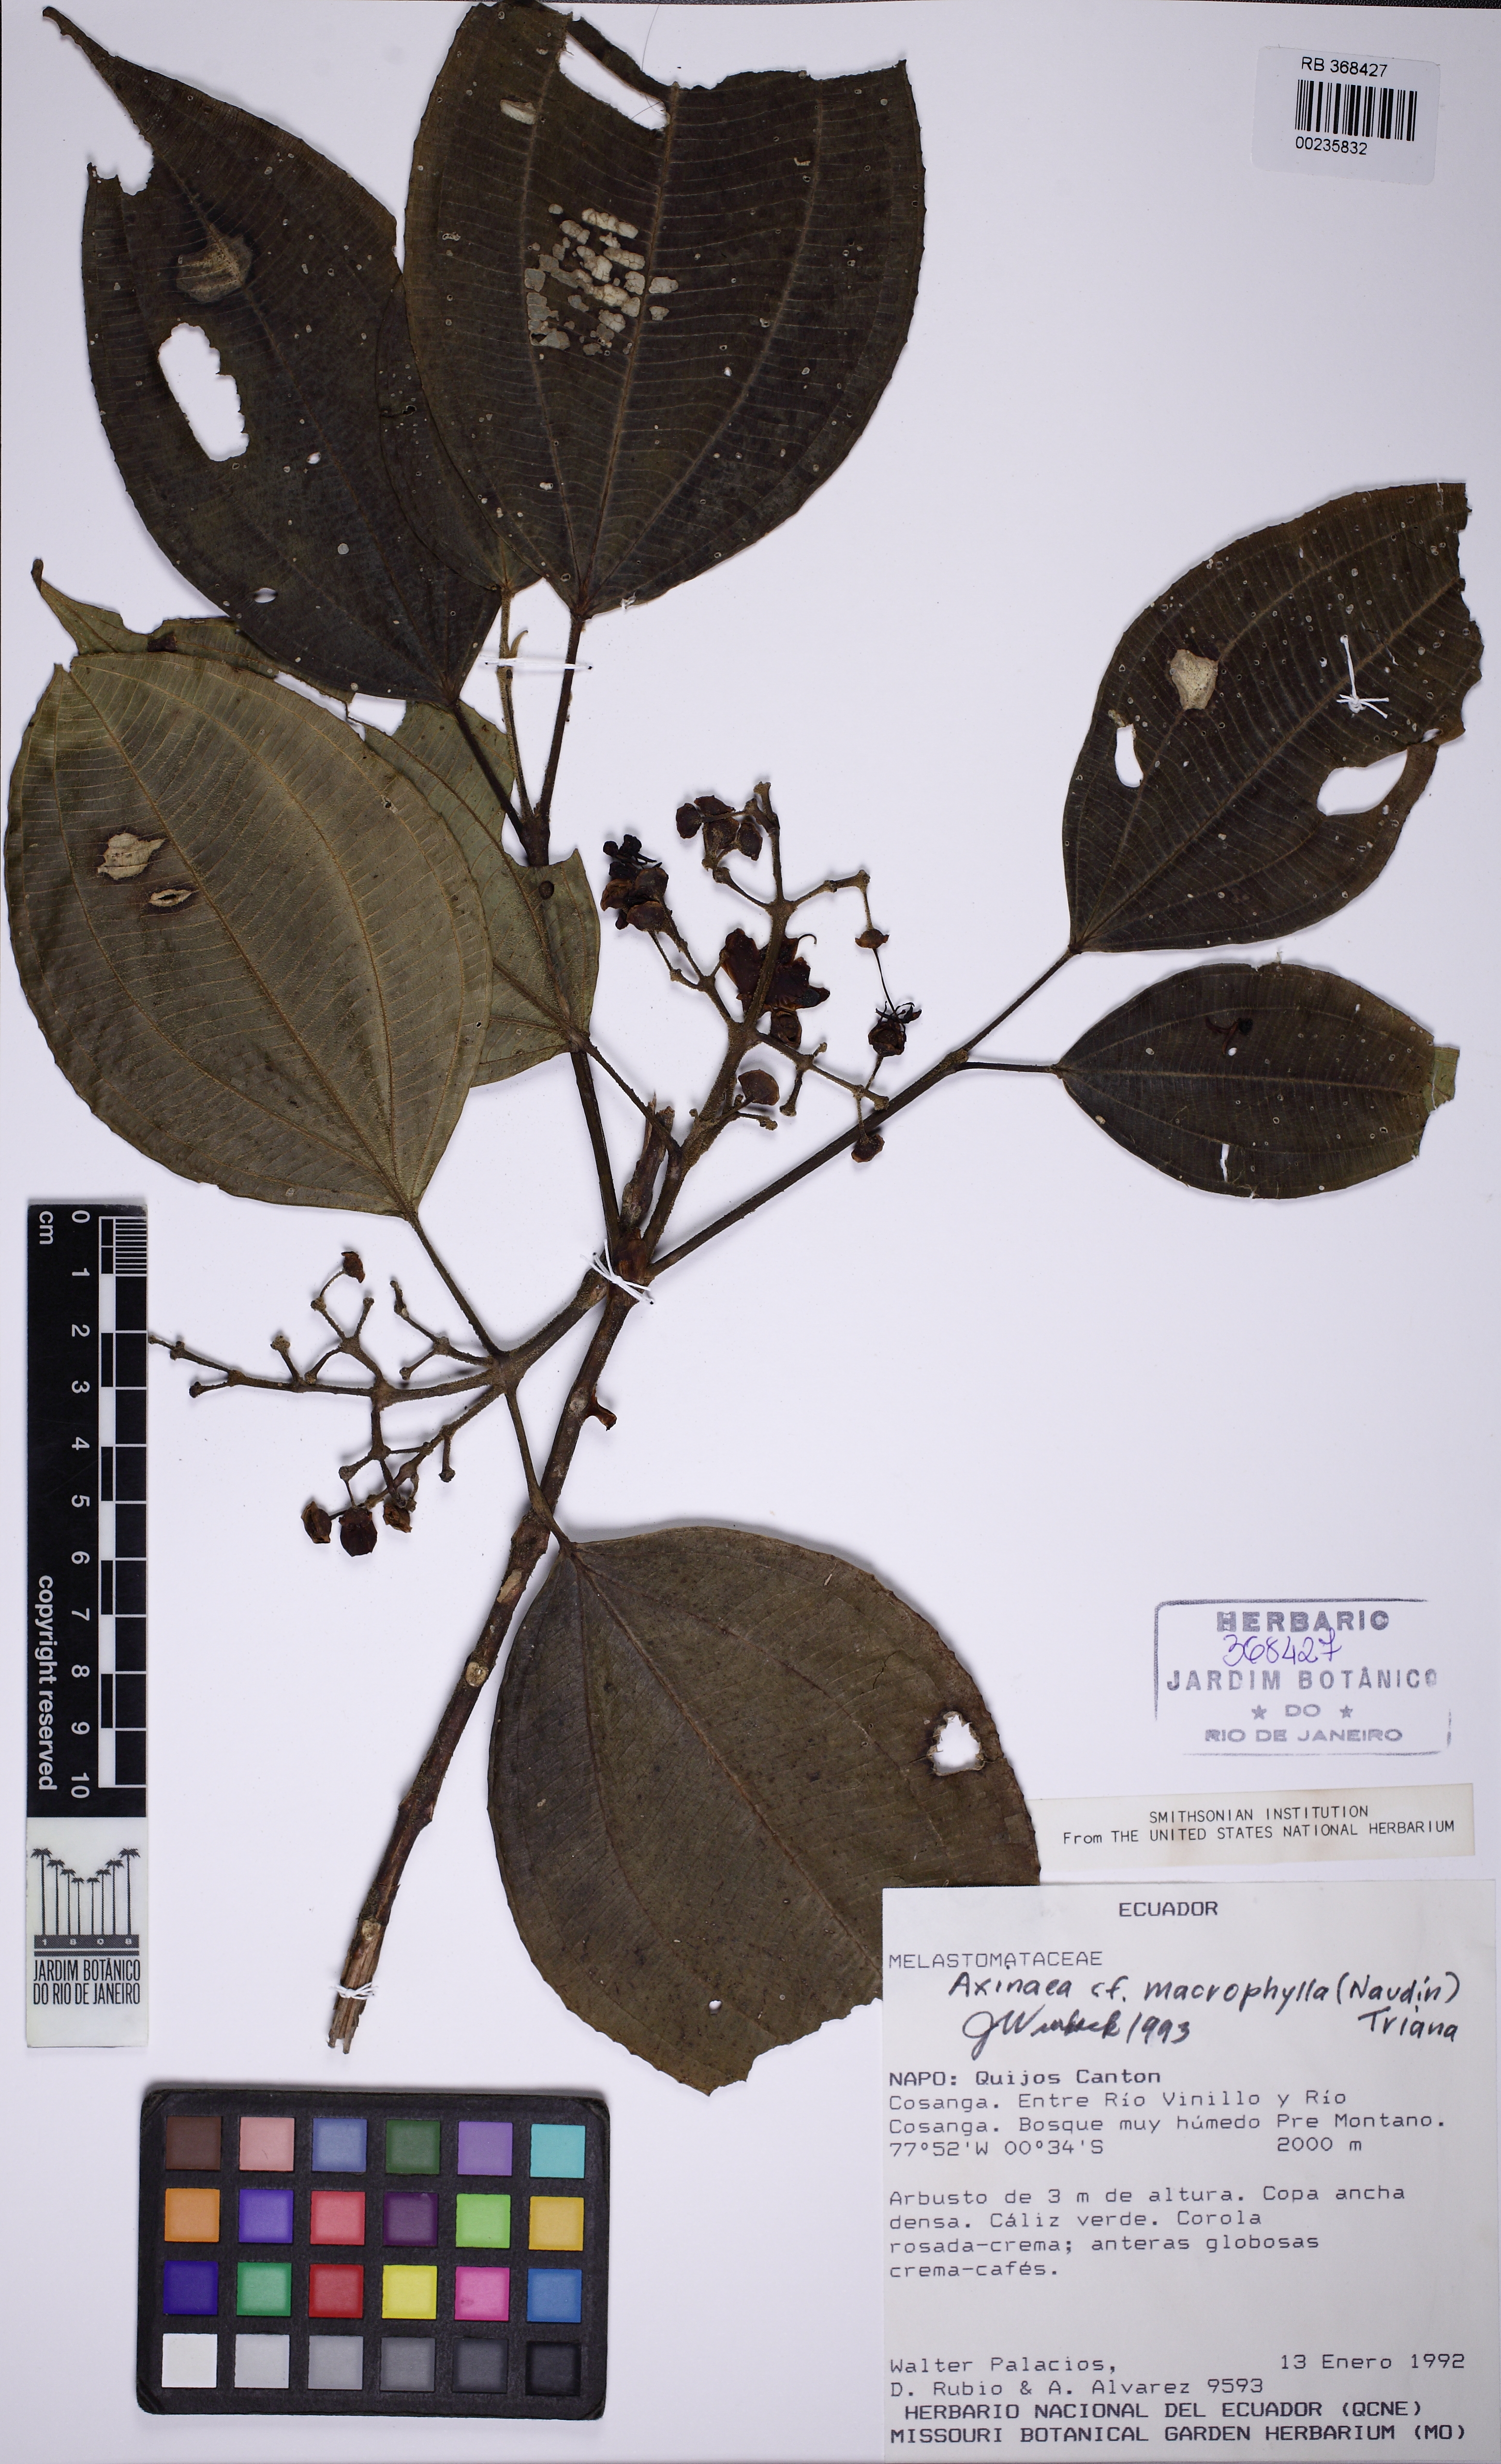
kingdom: Plantae
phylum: Tracheophyta
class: Magnoliopsida
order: Myrtales
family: Melastomataceae
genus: Axinaea
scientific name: Axinaea macrophylla
